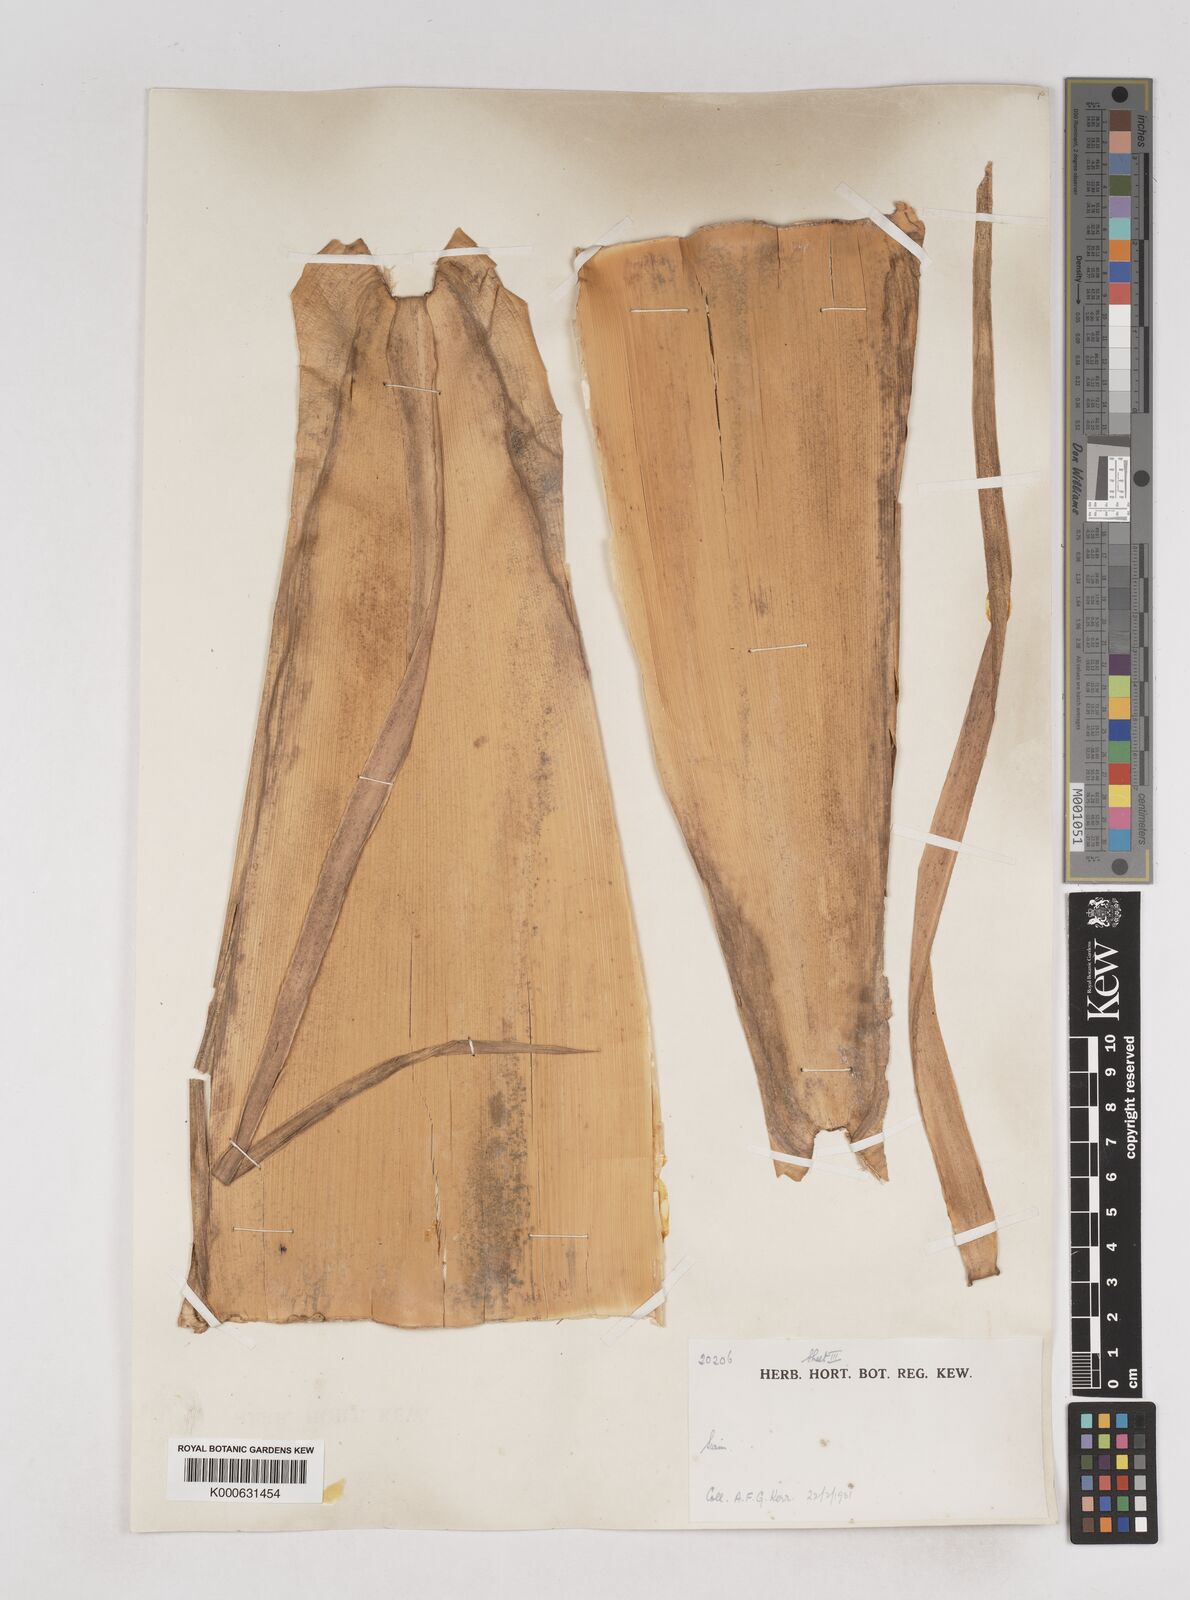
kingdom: Plantae
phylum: Tracheophyta
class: Liliopsida
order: Poales
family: Poaceae
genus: Schizostachyum
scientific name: Schizostachyum
